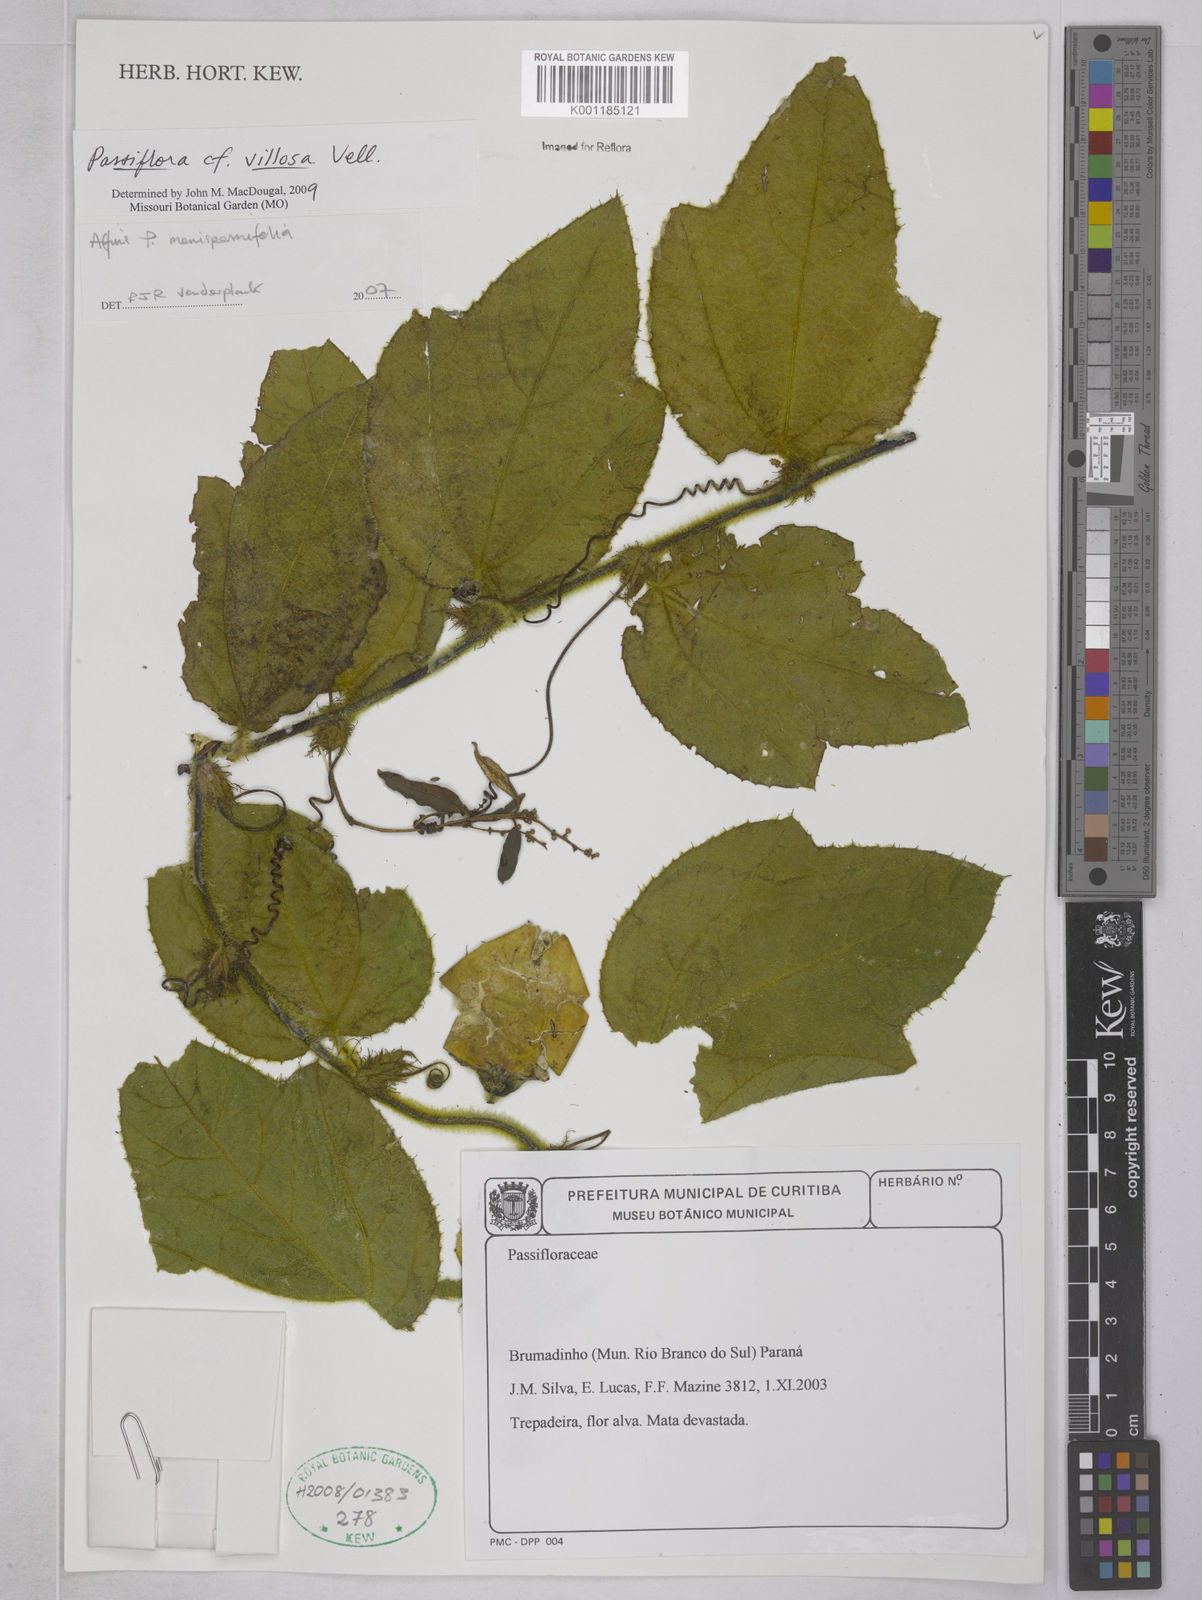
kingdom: Plantae
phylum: Tracheophyta
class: Magnoliopsida
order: Malpighiales
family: Passifloraceae
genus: Passiflora
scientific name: Passiflora villosa
